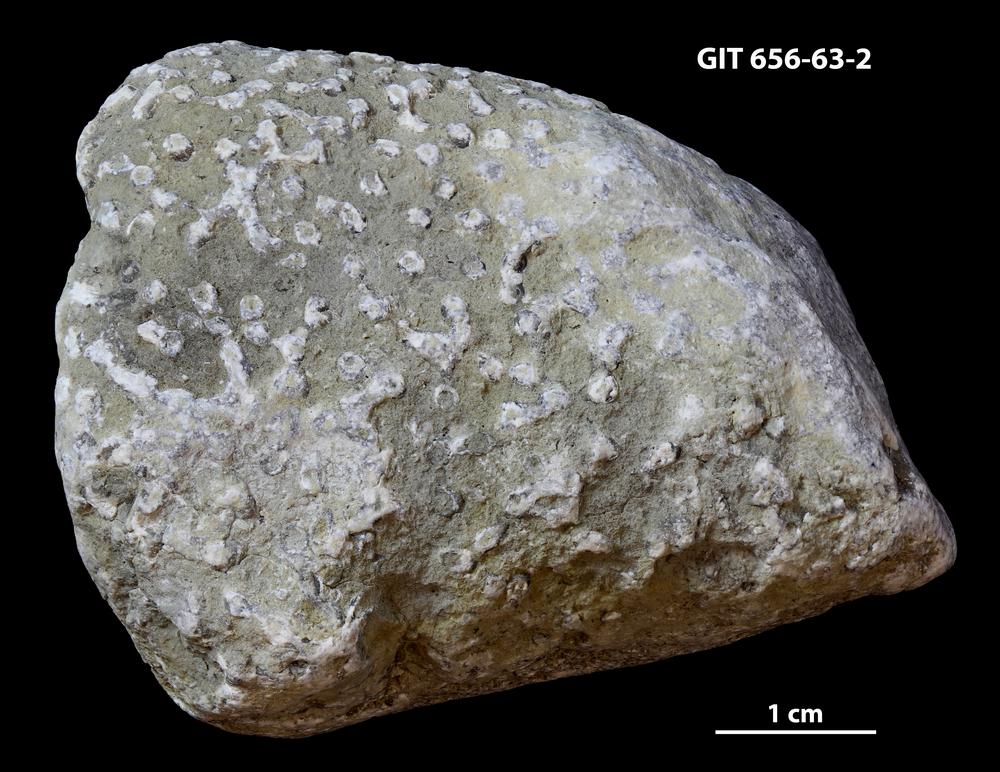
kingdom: Animalia
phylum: Cnidaria
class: Anthozoa
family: Auloporidae
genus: Aulopora
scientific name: Aulopora
